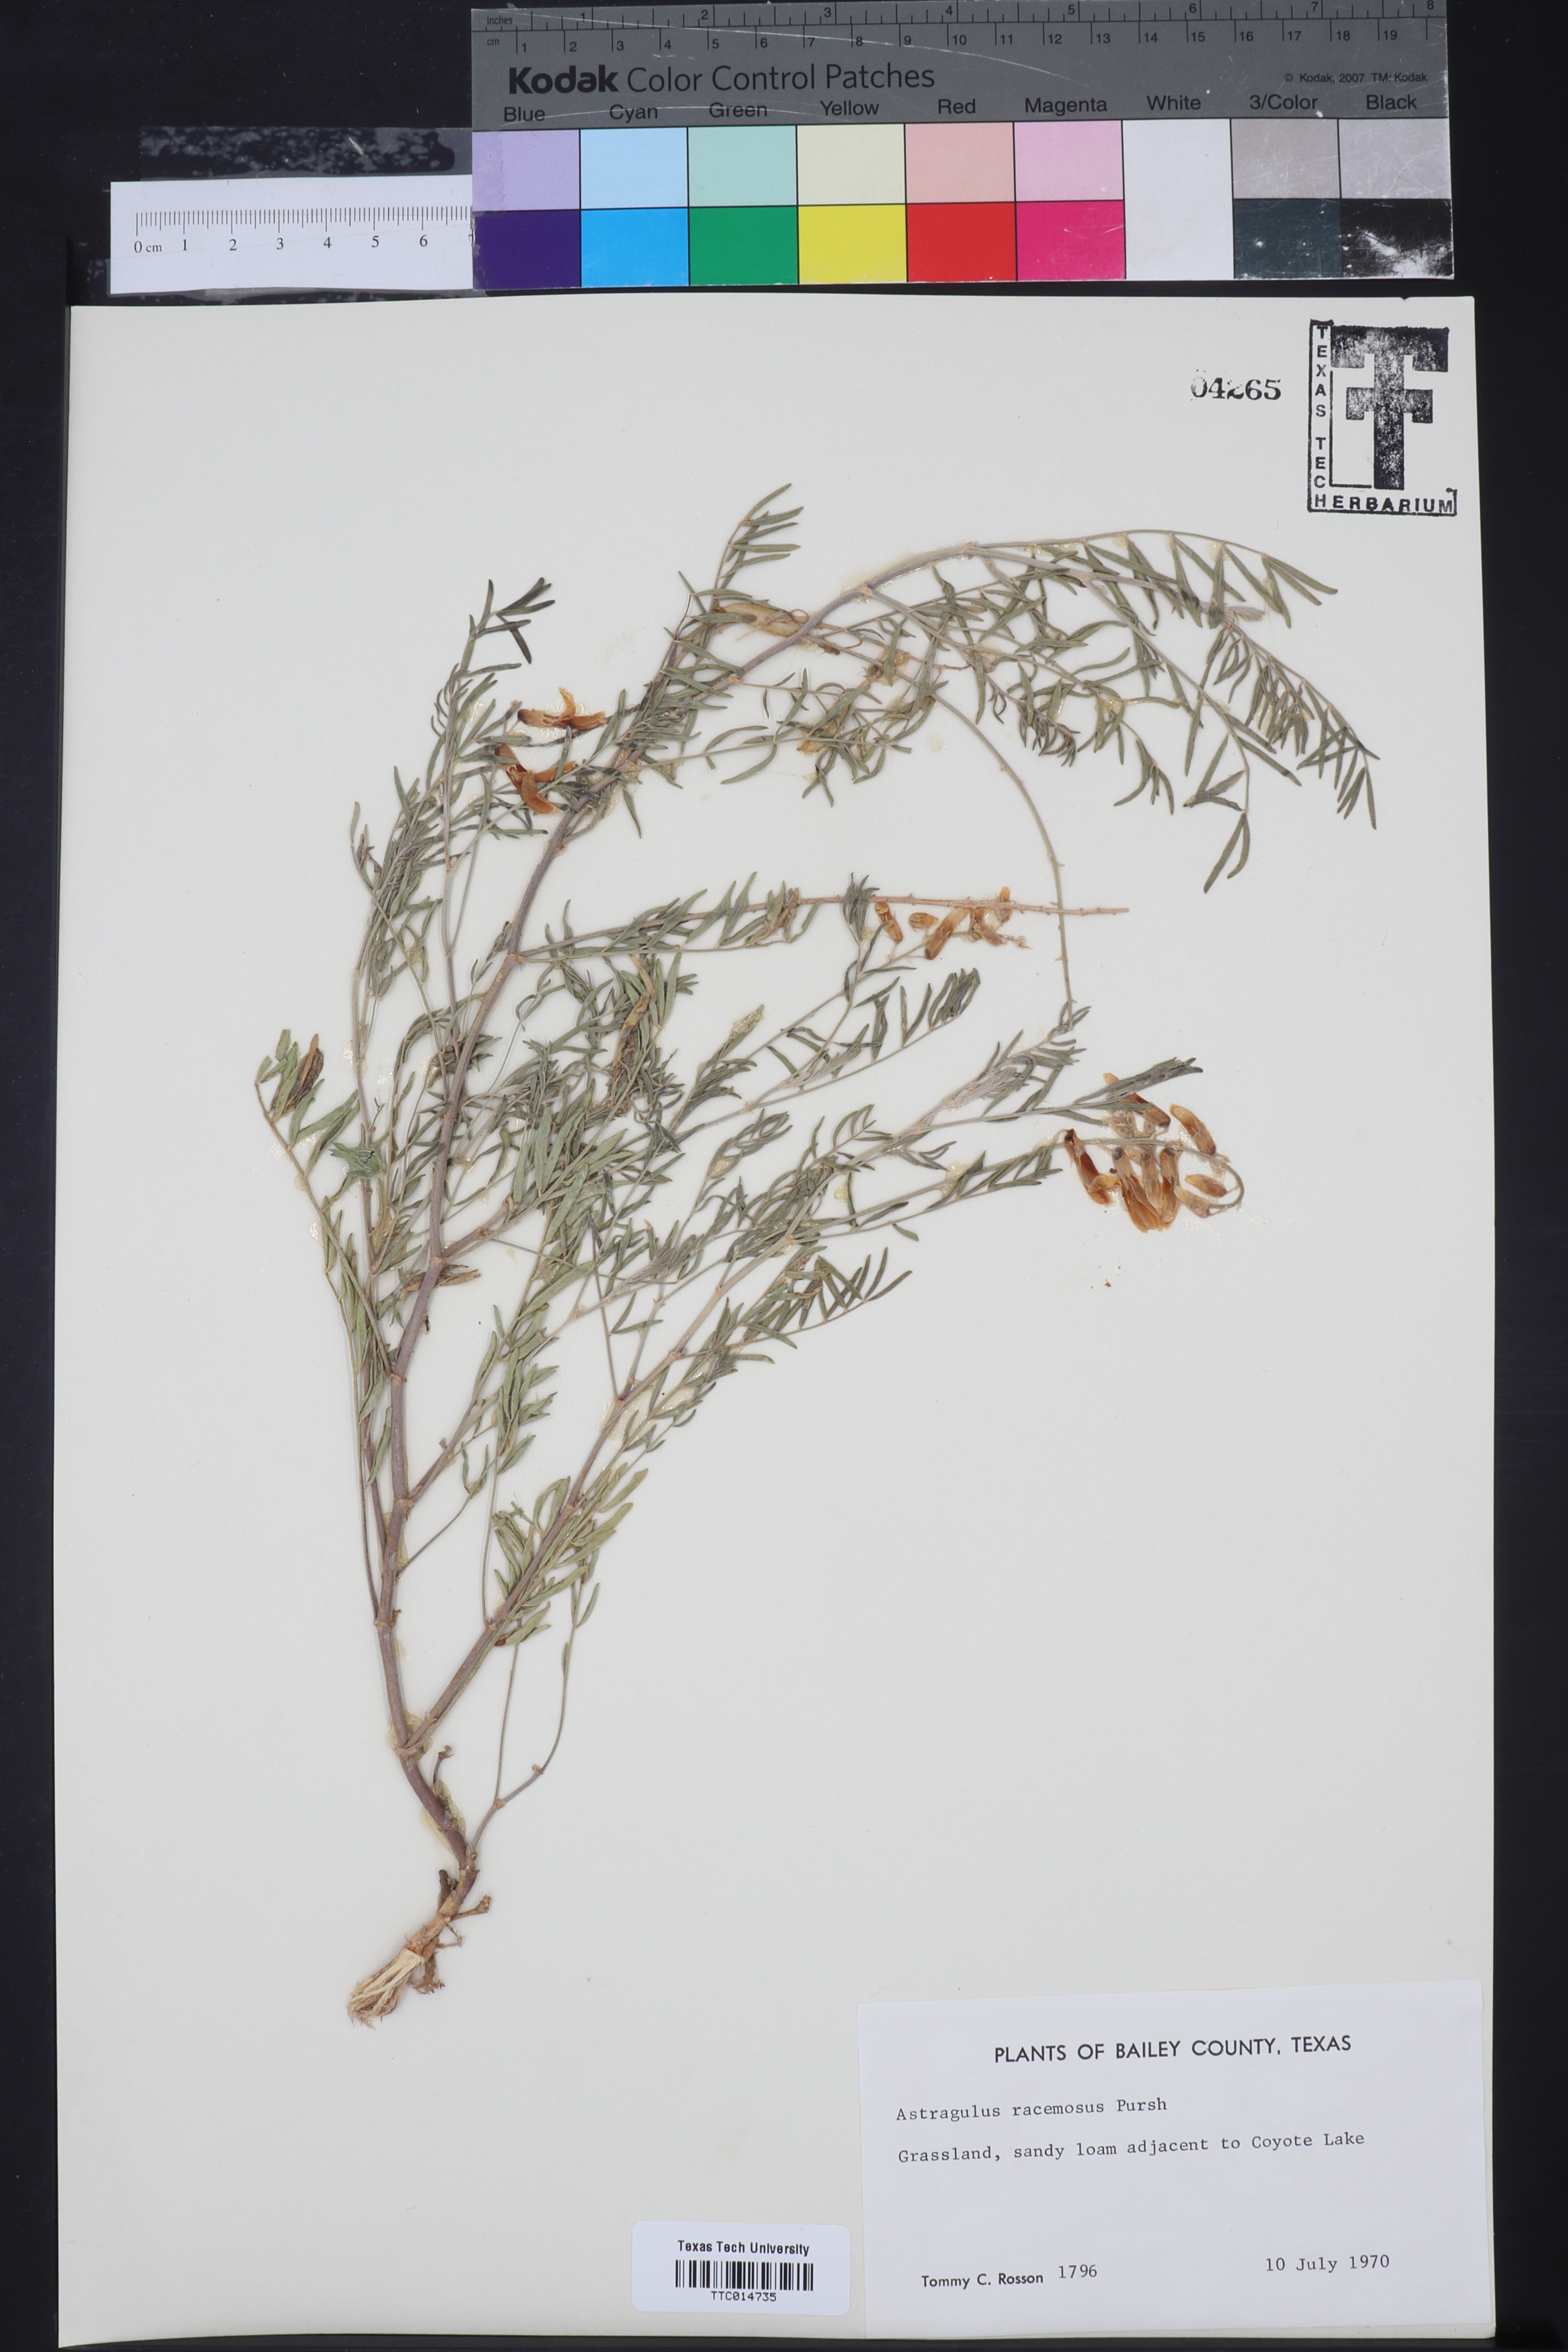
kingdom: Plantae
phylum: Tracheophyta
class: Magnoliopsida
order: Fabales
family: Fabaceae
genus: Astragalus
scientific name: Astragalus racemosus
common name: Alkali milk-vetch
